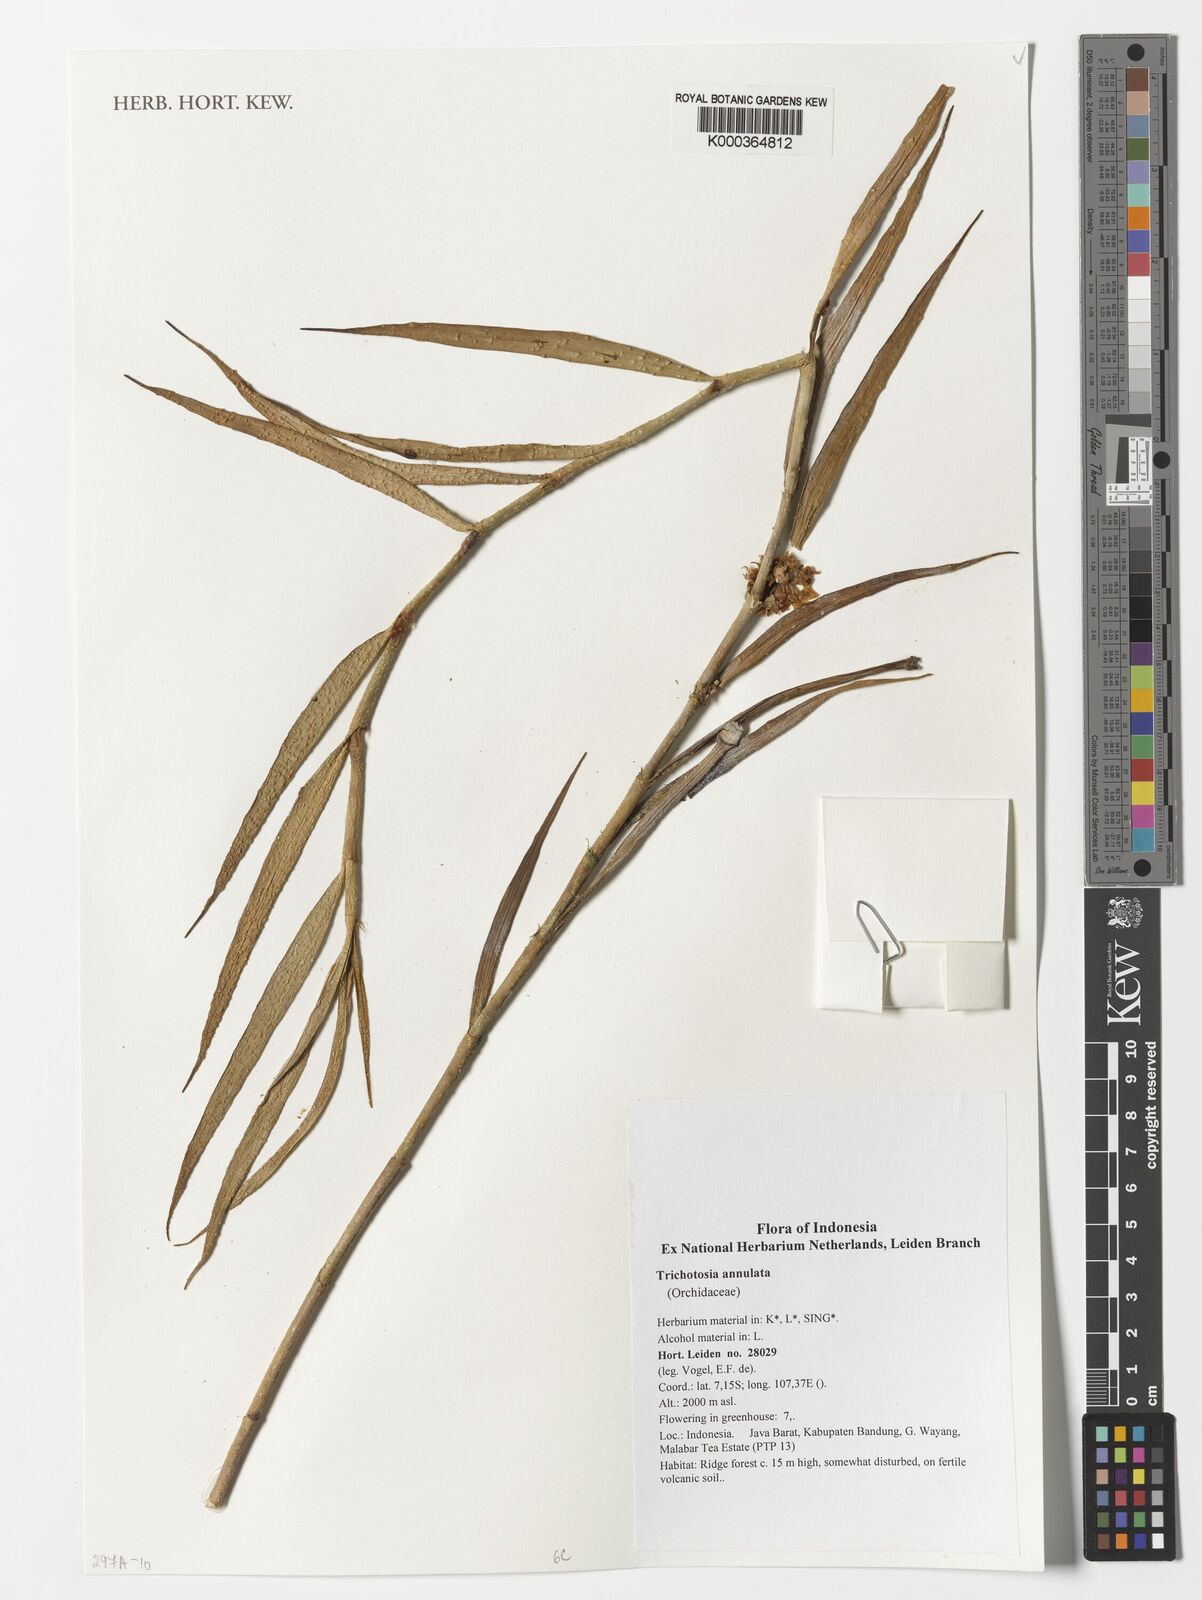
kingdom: Plantae
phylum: Tracheophyta
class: Liliopsida
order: Asparagales
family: Orchidaceae
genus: Trichotosia
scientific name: Trichotosia annulata
